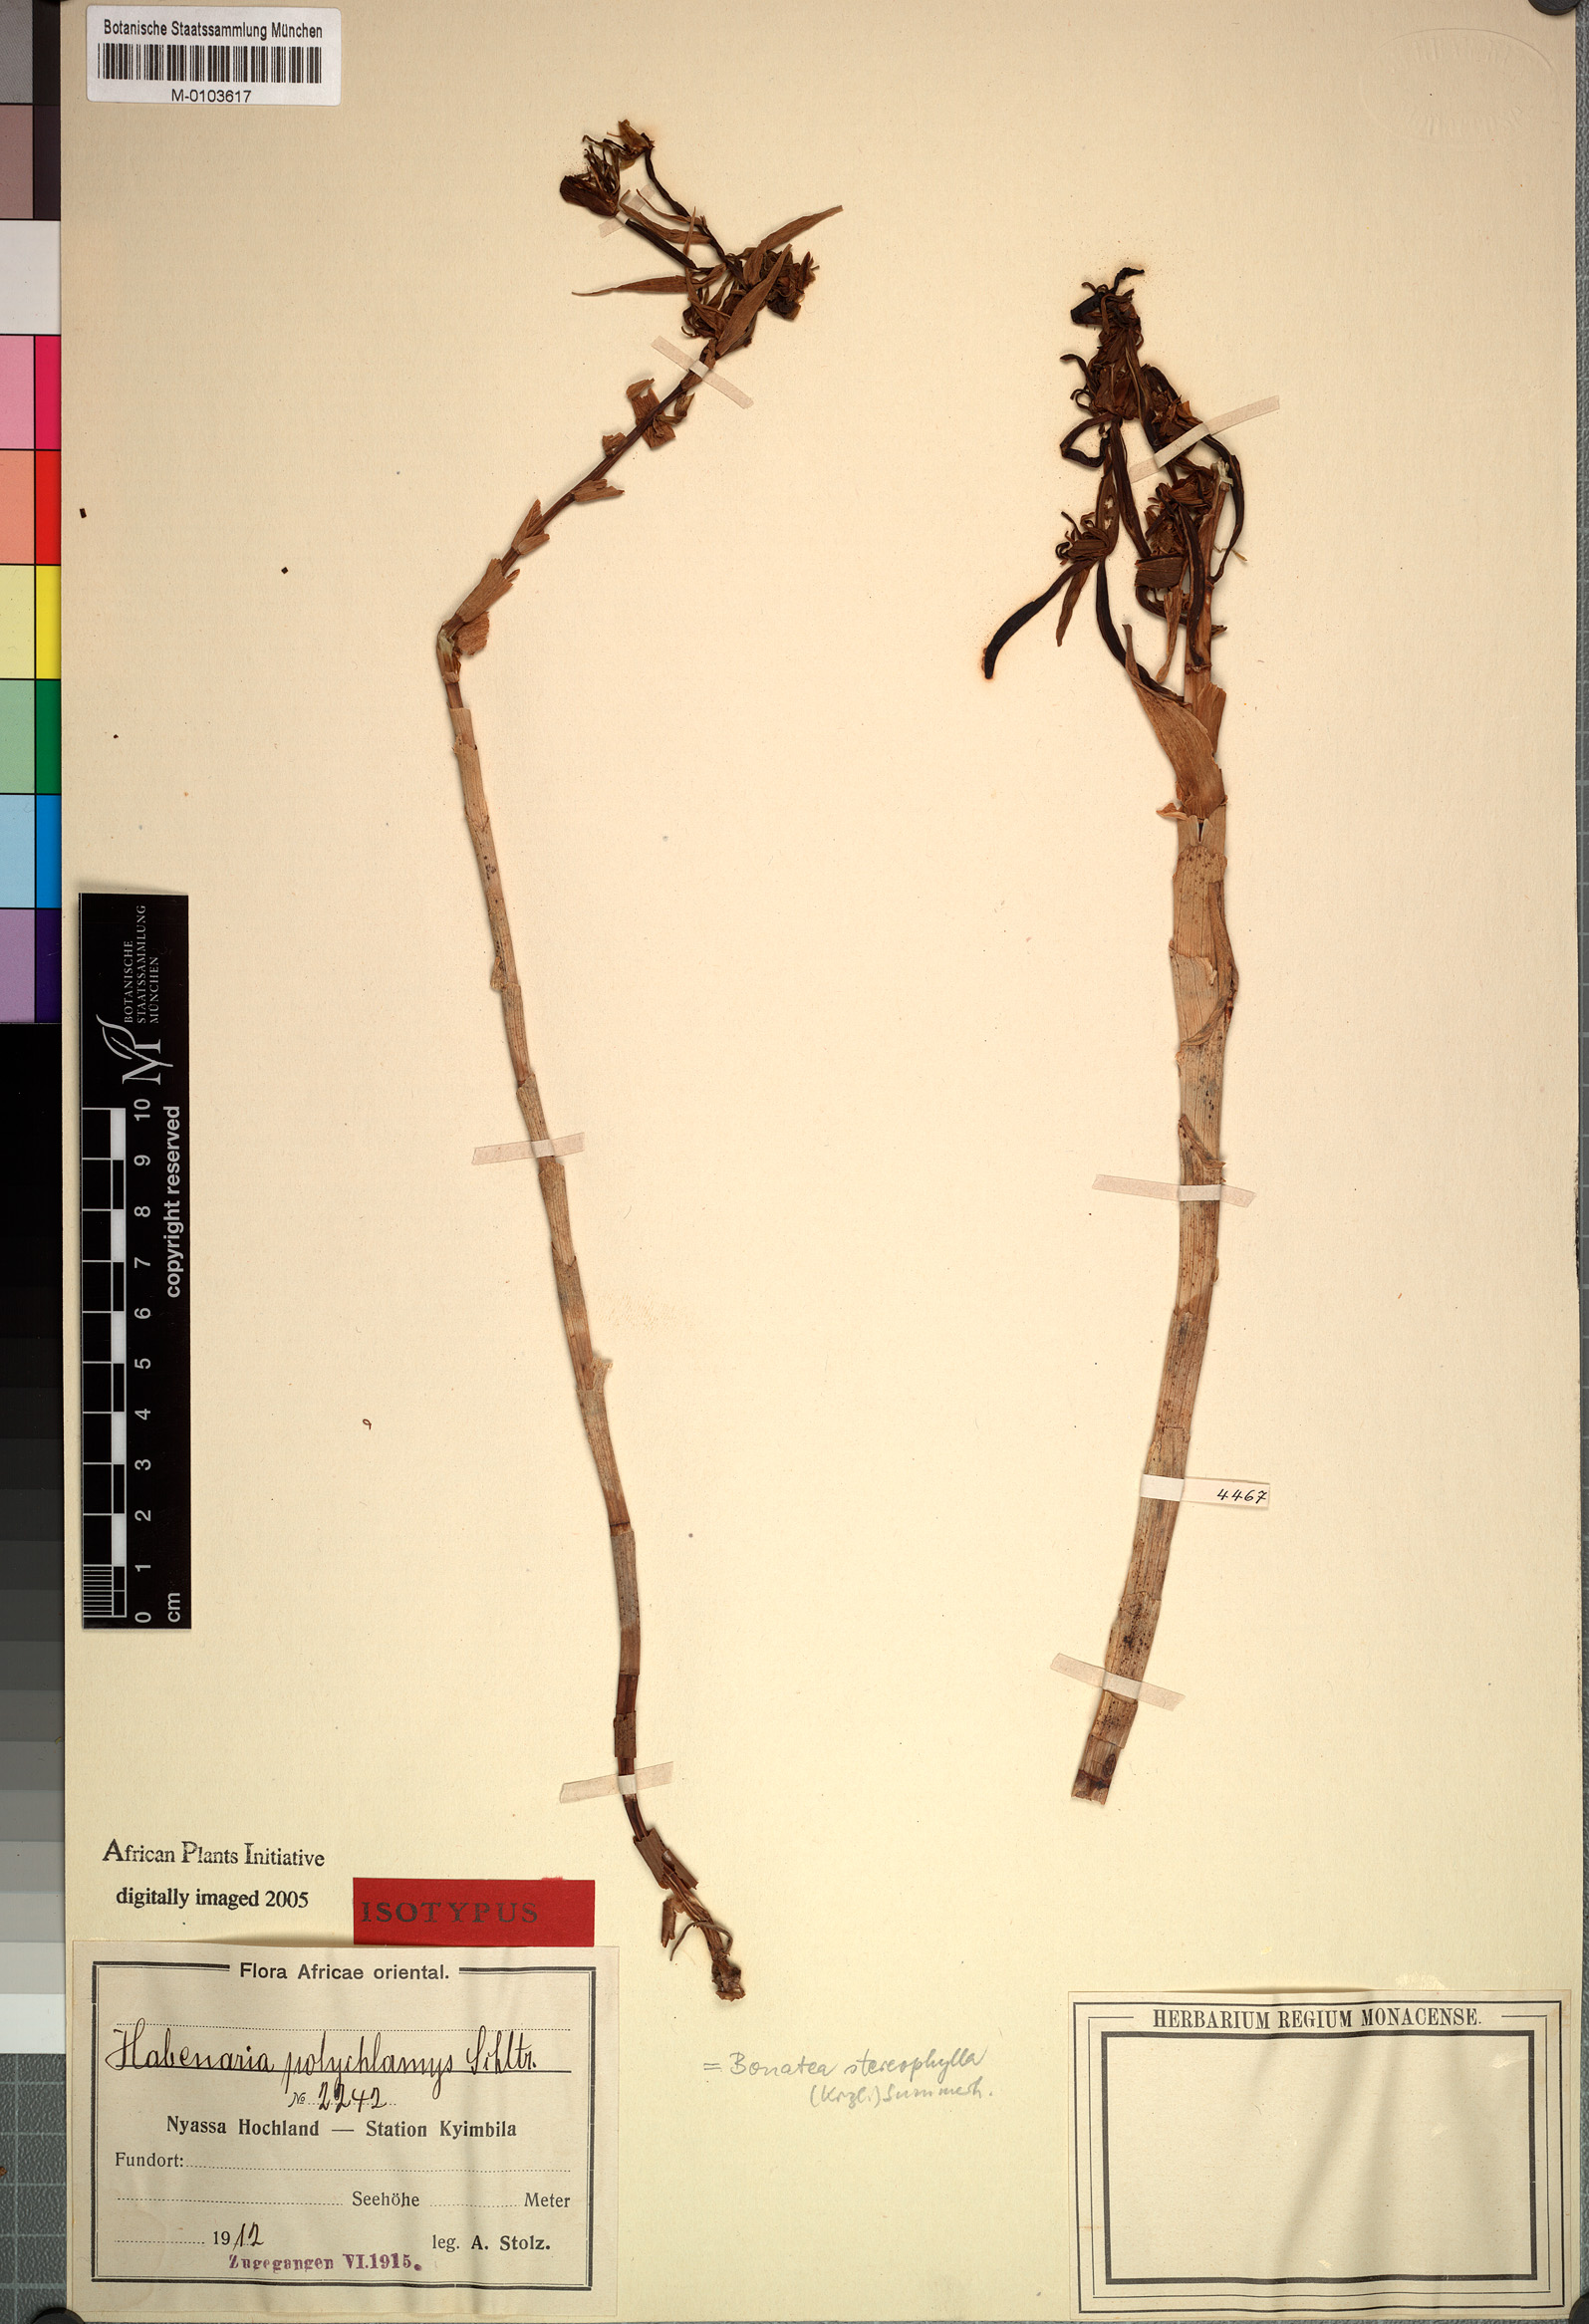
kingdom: Plantae
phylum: Tracheophyta
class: Liliopsida
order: Asparagales
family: Orchidaceae
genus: Bonatea
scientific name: Bonatea stereophylla
